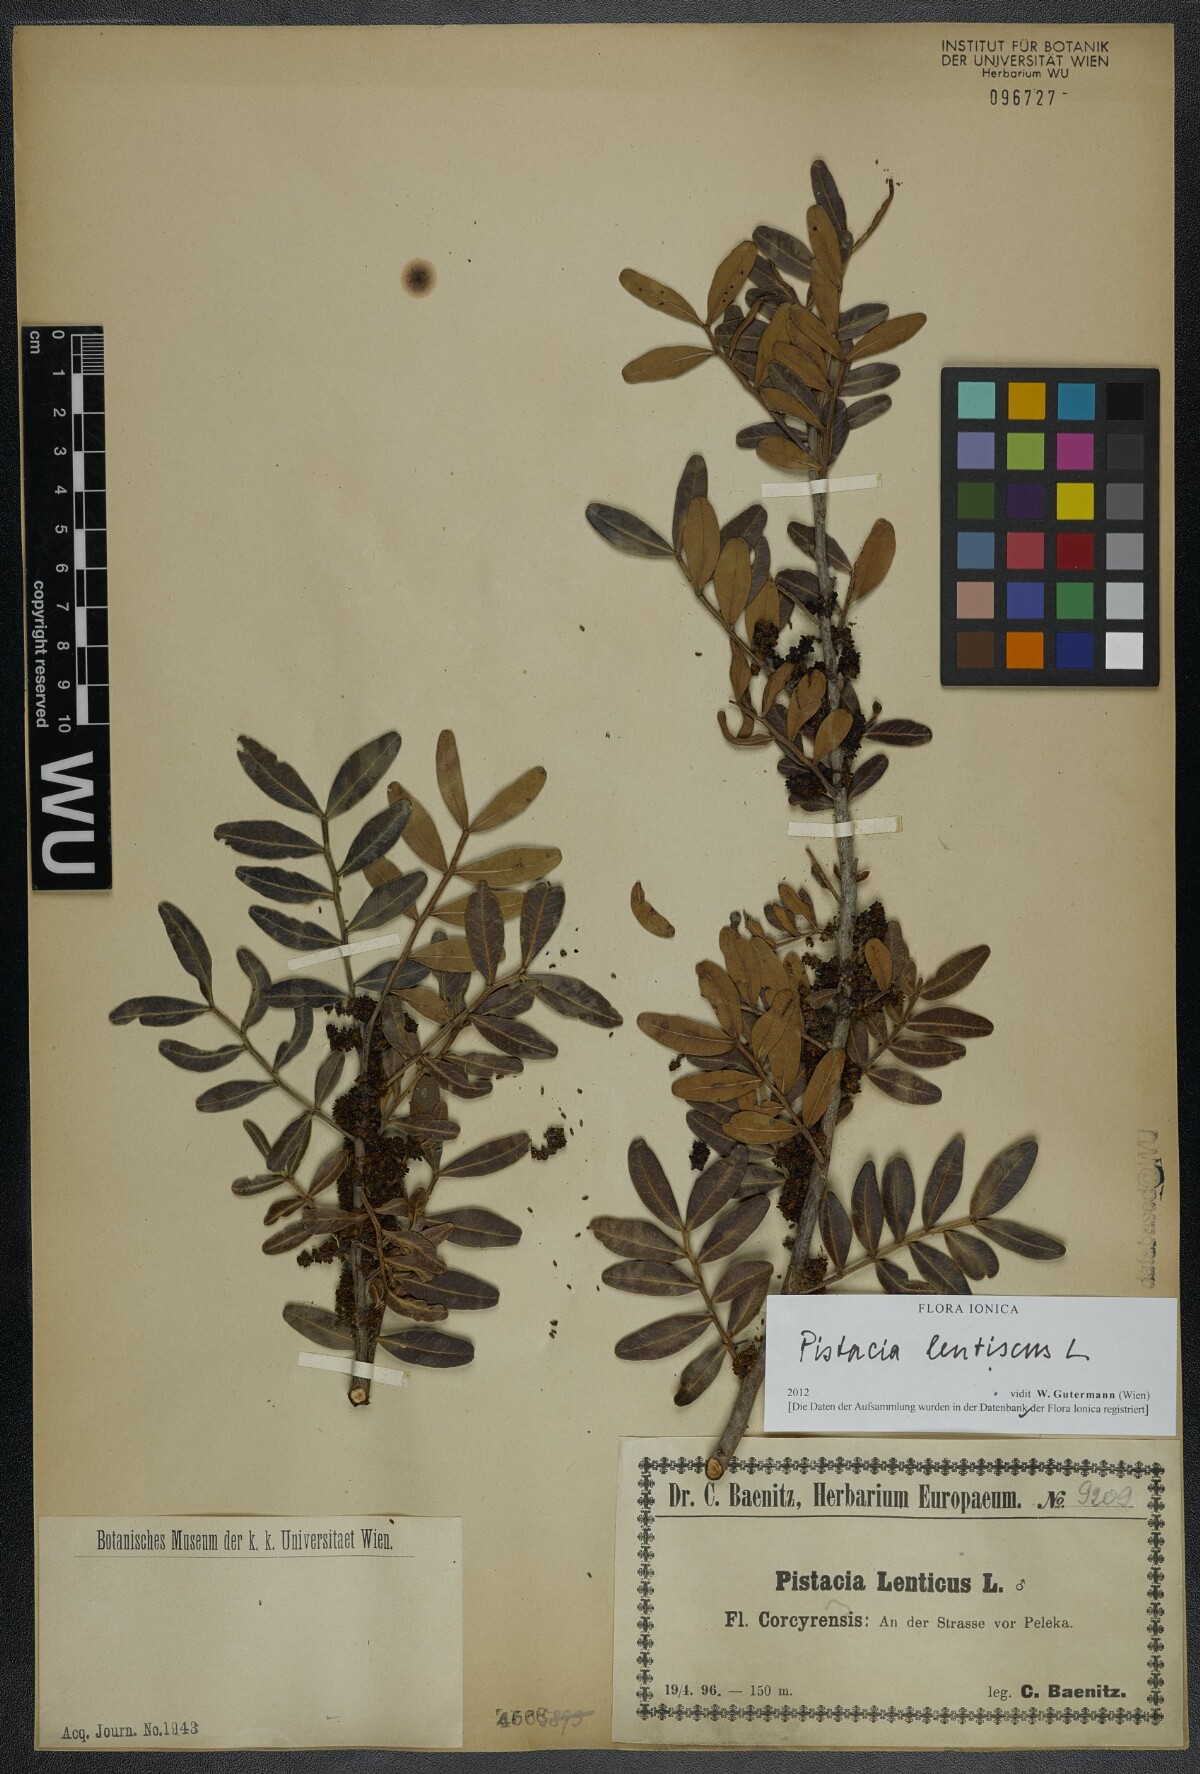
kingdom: Plantae
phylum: Tracheophyta
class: Magnoliopsida
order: Sapindales
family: Anacardiaceae
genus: Pistacia
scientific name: Pistacia lentiscus
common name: Lentisk
